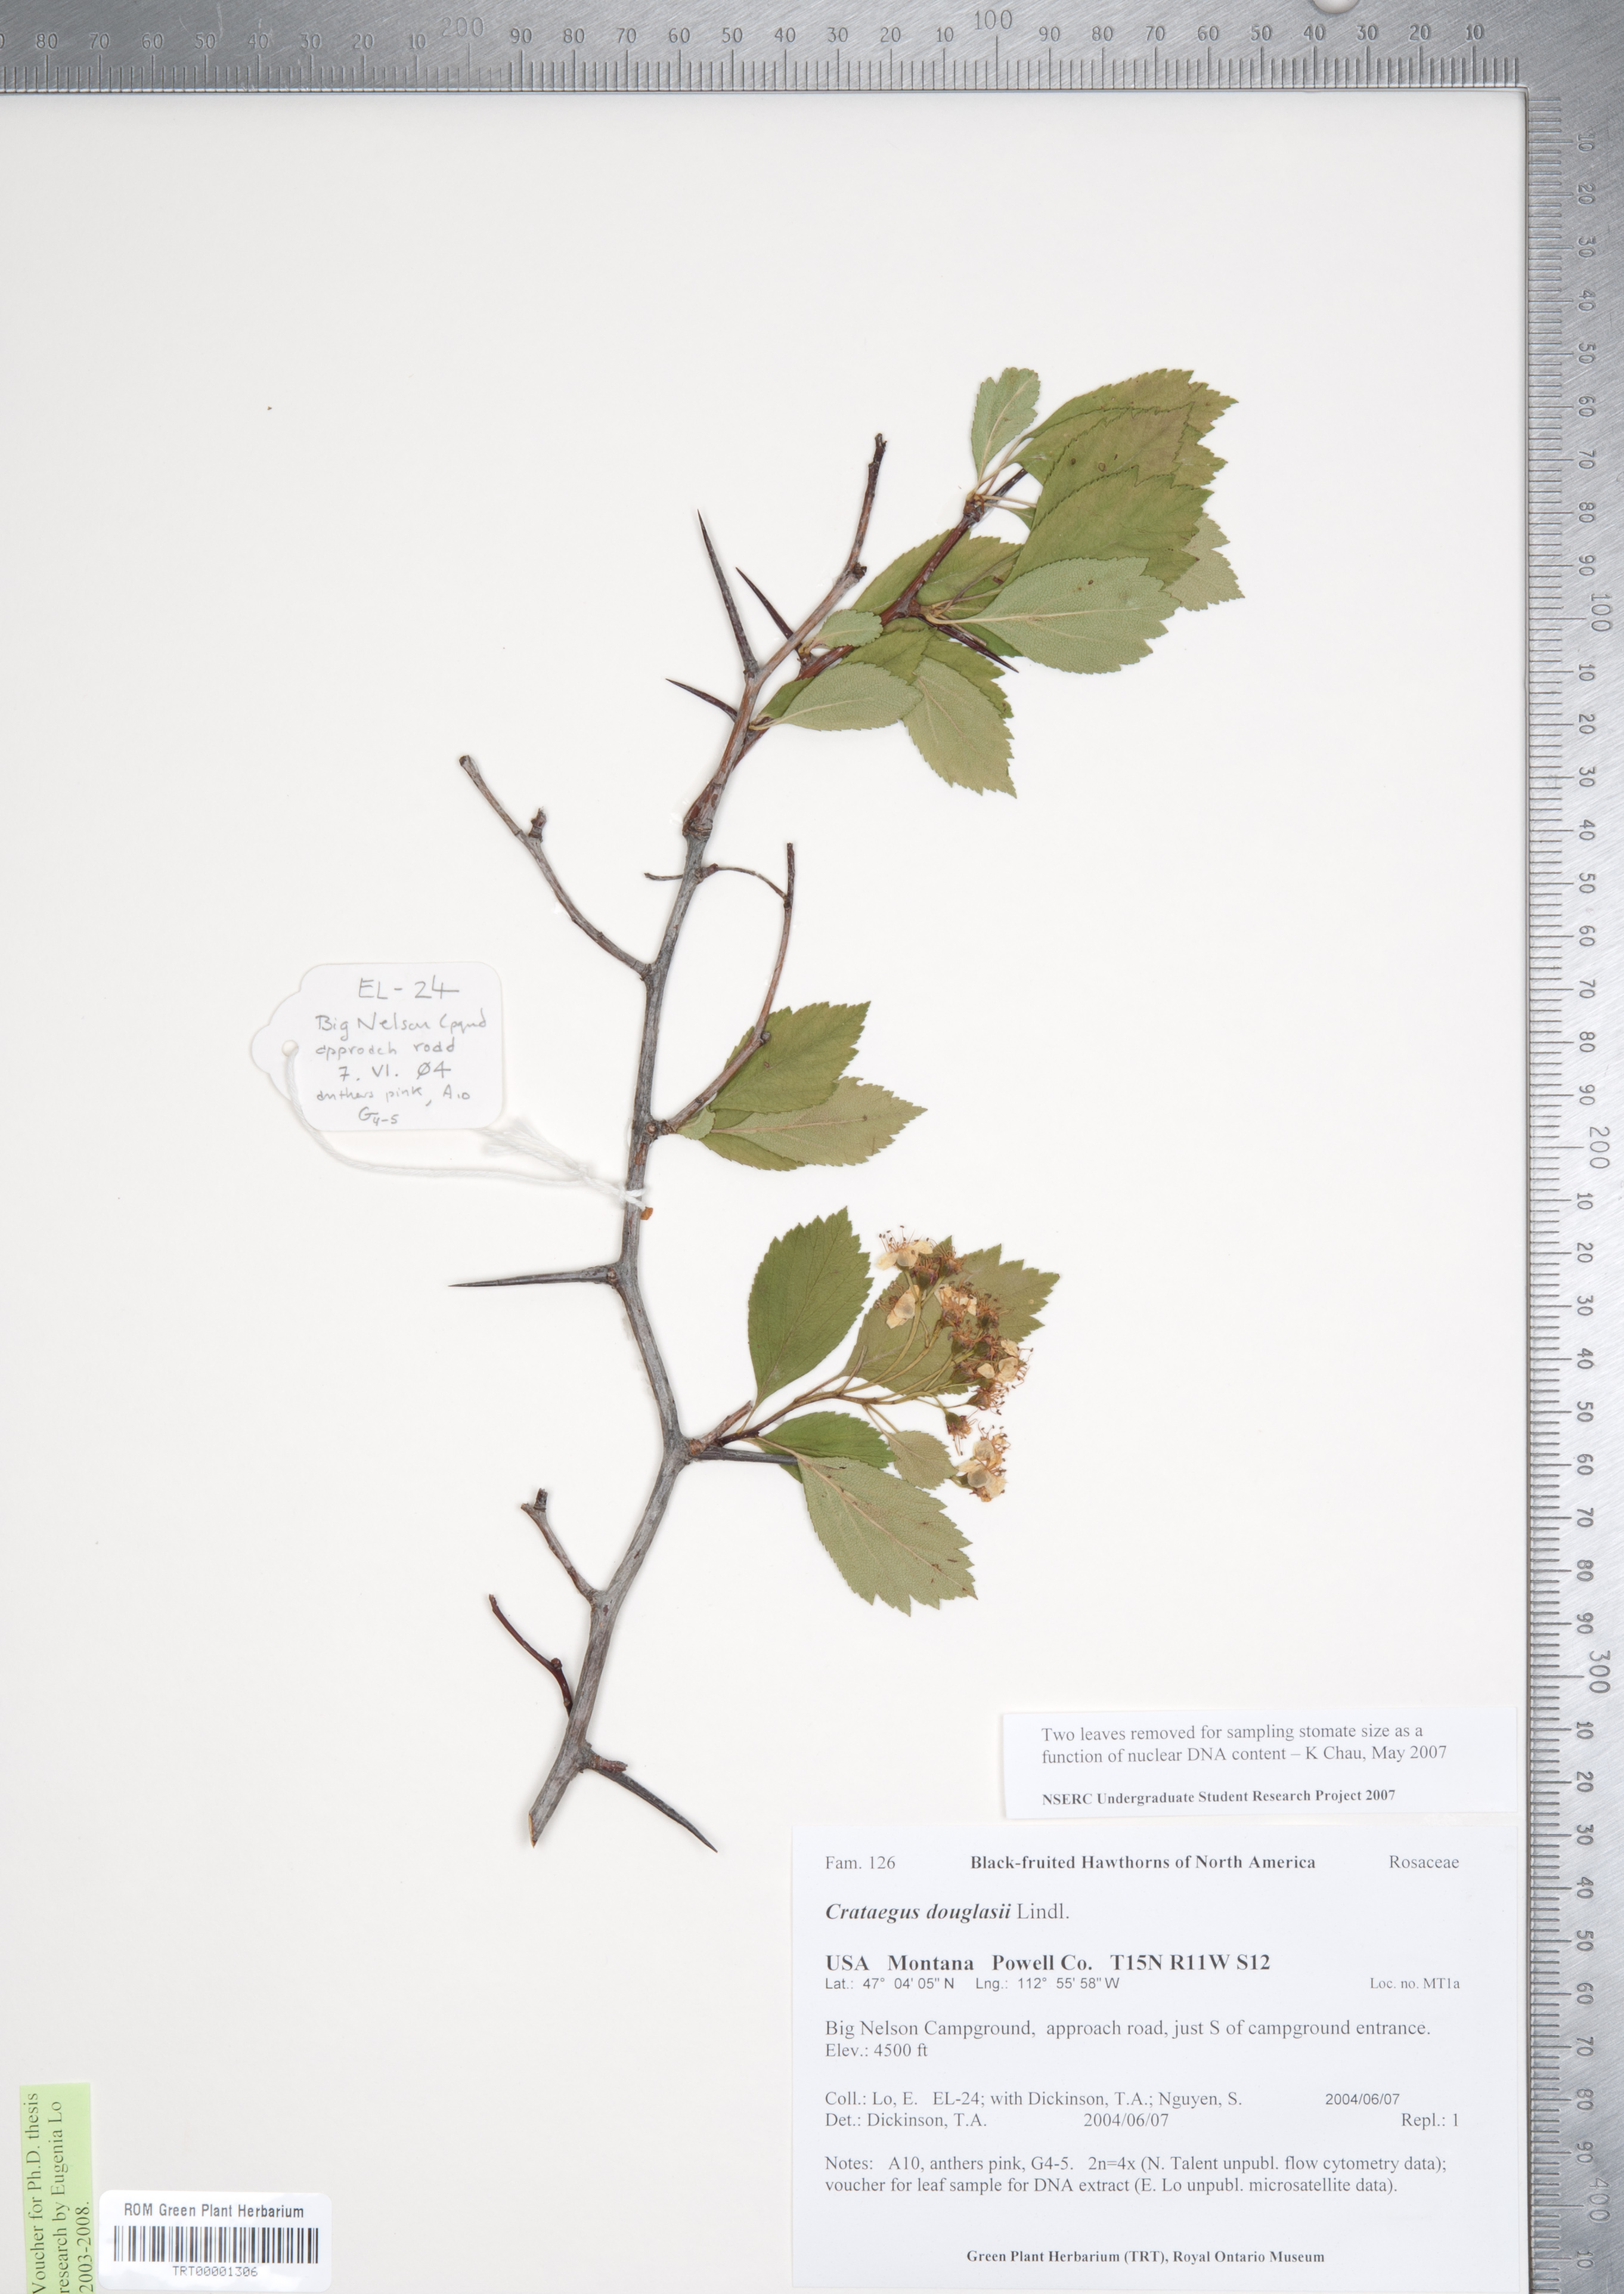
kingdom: Plantae
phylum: Tracheophyta
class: Magnoliopsida
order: Rosales
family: Rosaceae
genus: Crataegus
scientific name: Crataegus douglasii
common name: Black hawthorn
